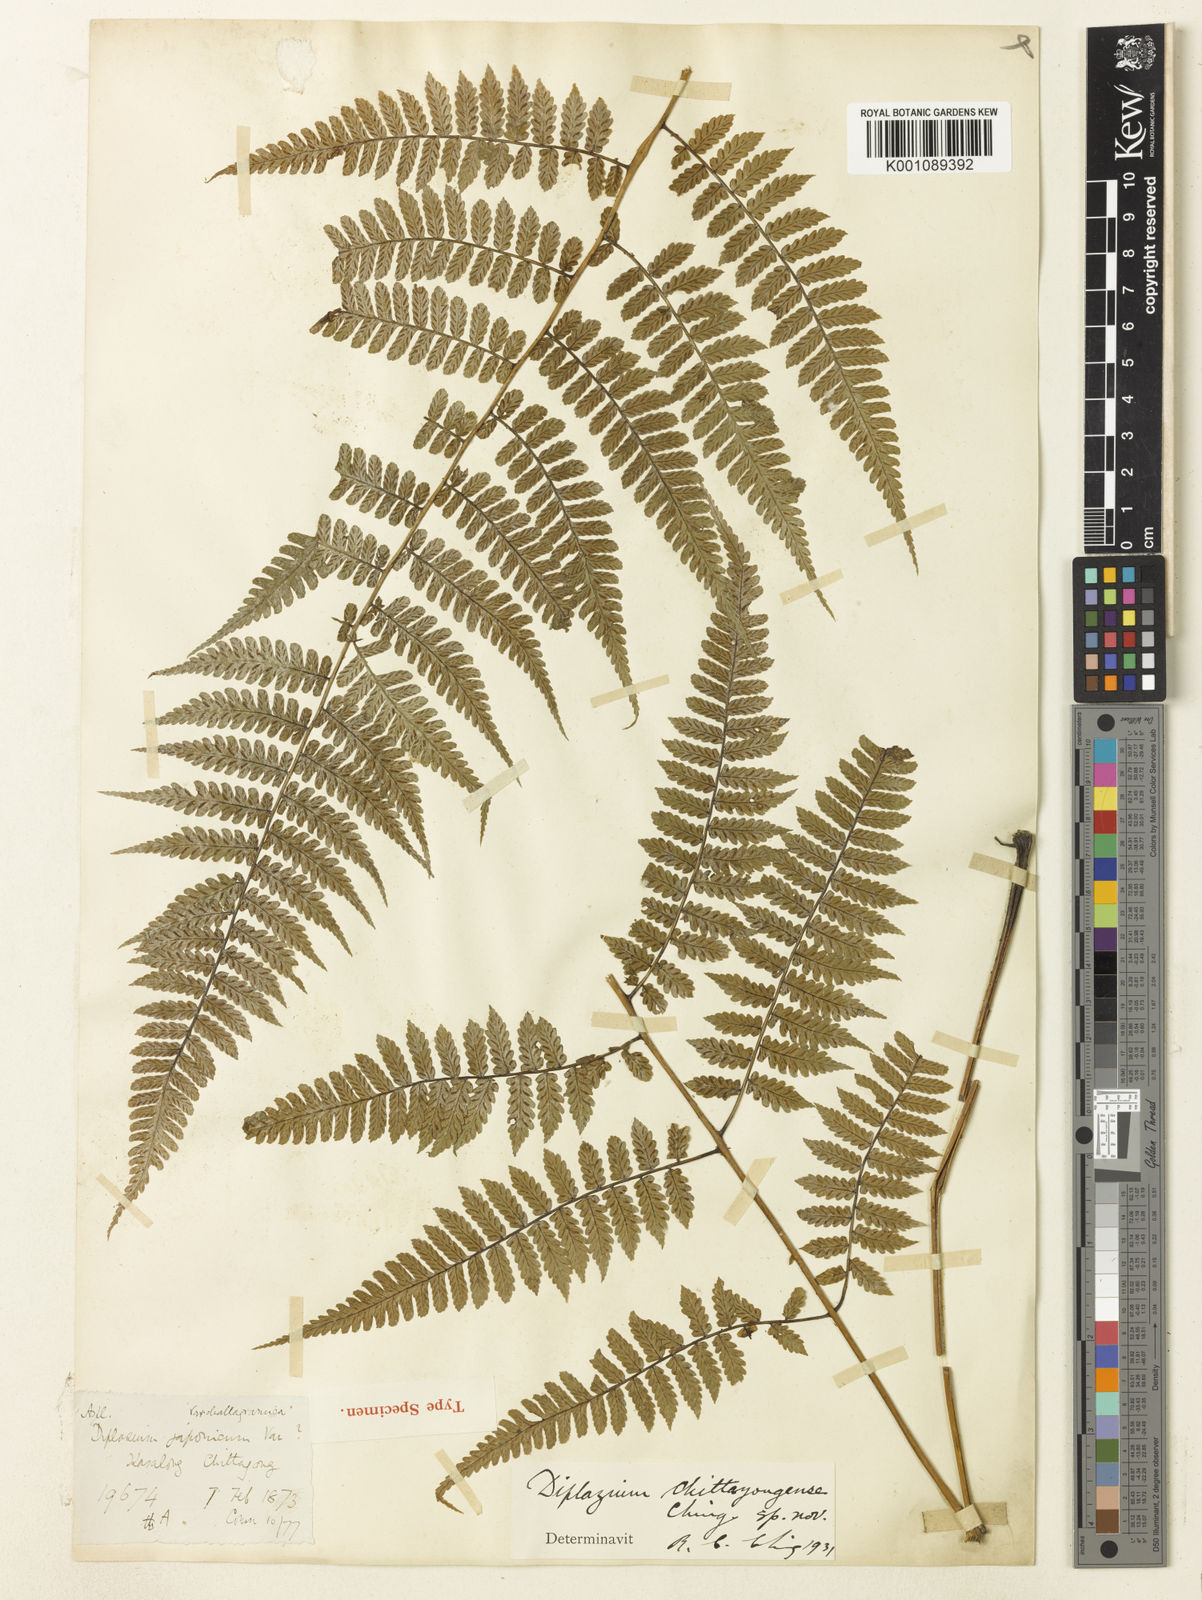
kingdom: Plantae
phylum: Tracheophyta
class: Polypodiopsida
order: Polypodiales
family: Athyriaceae
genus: Diplazium
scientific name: Diplazium chattagramicum
